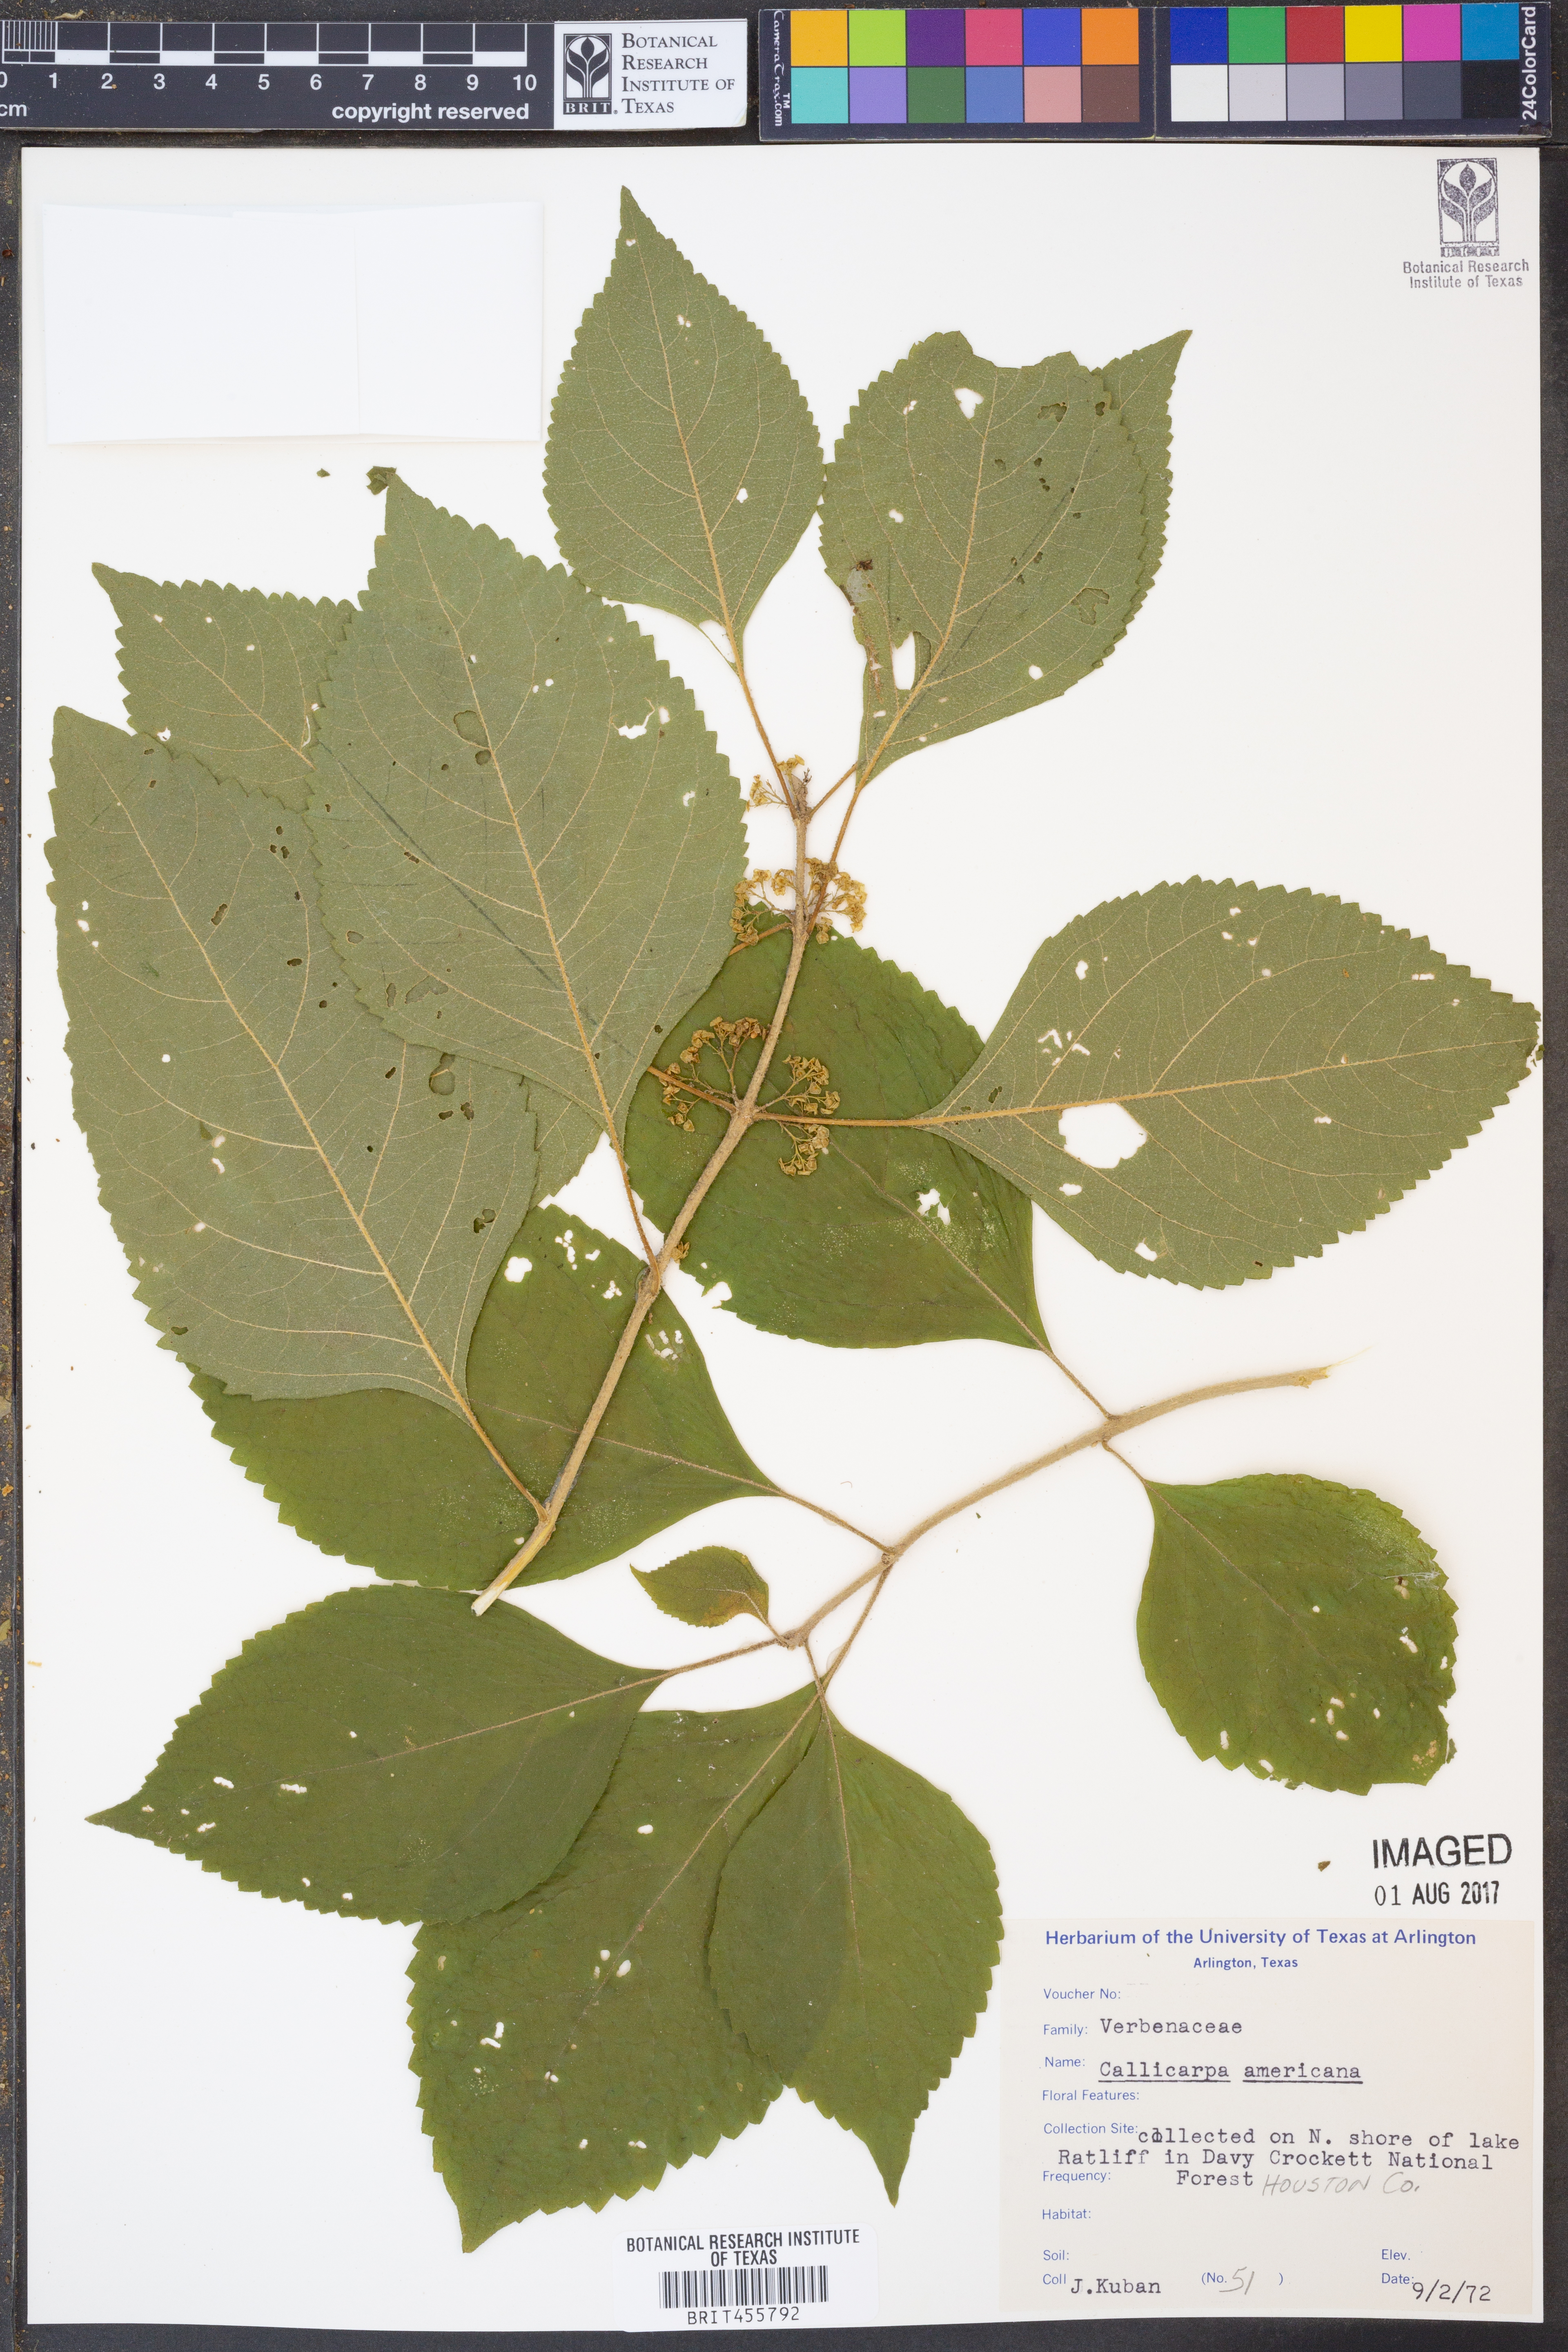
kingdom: Plantae
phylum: Tracheophyta
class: Magnoliopsida
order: Lamiales
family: Lamiaceae
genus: Callicarpa
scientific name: Callicarpa americana
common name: American beautyberry
